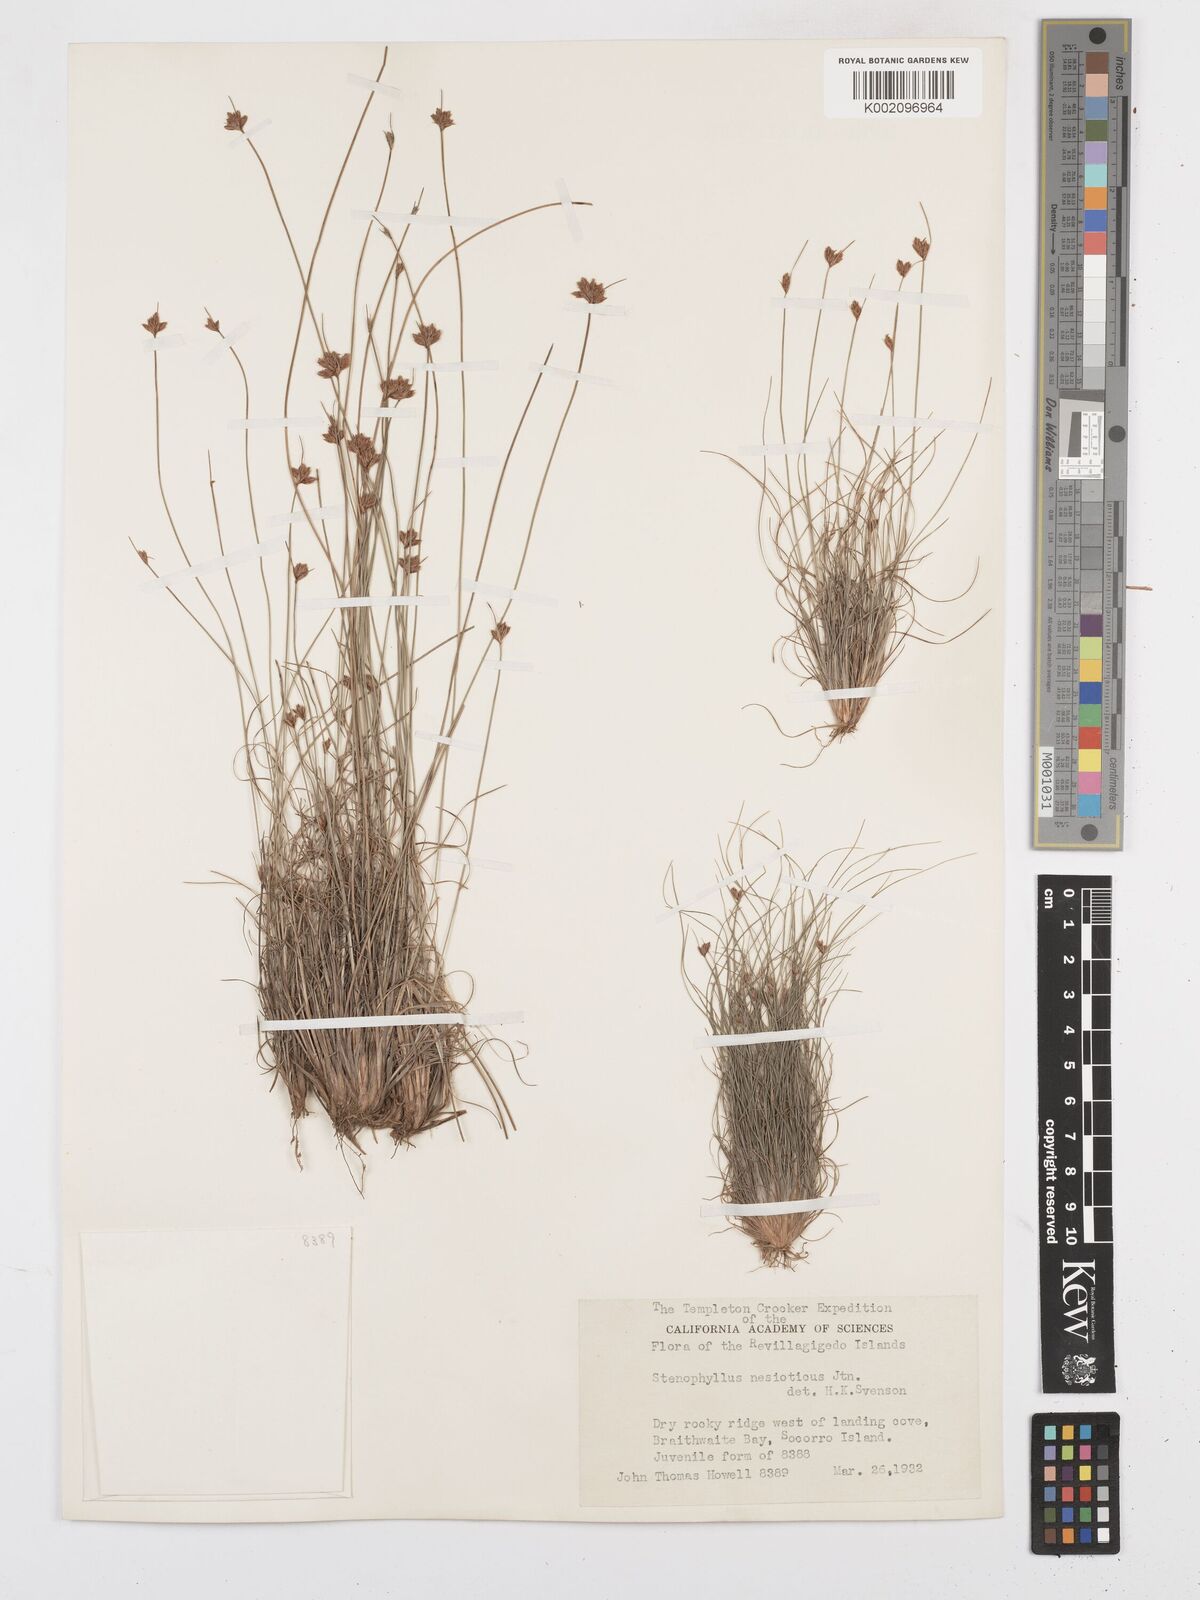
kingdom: Plantae
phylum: Tracheophyta
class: Liliopsida
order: Poales
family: Cyperaceae
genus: Bulbostylis
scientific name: Bulbostylis nesiotica
